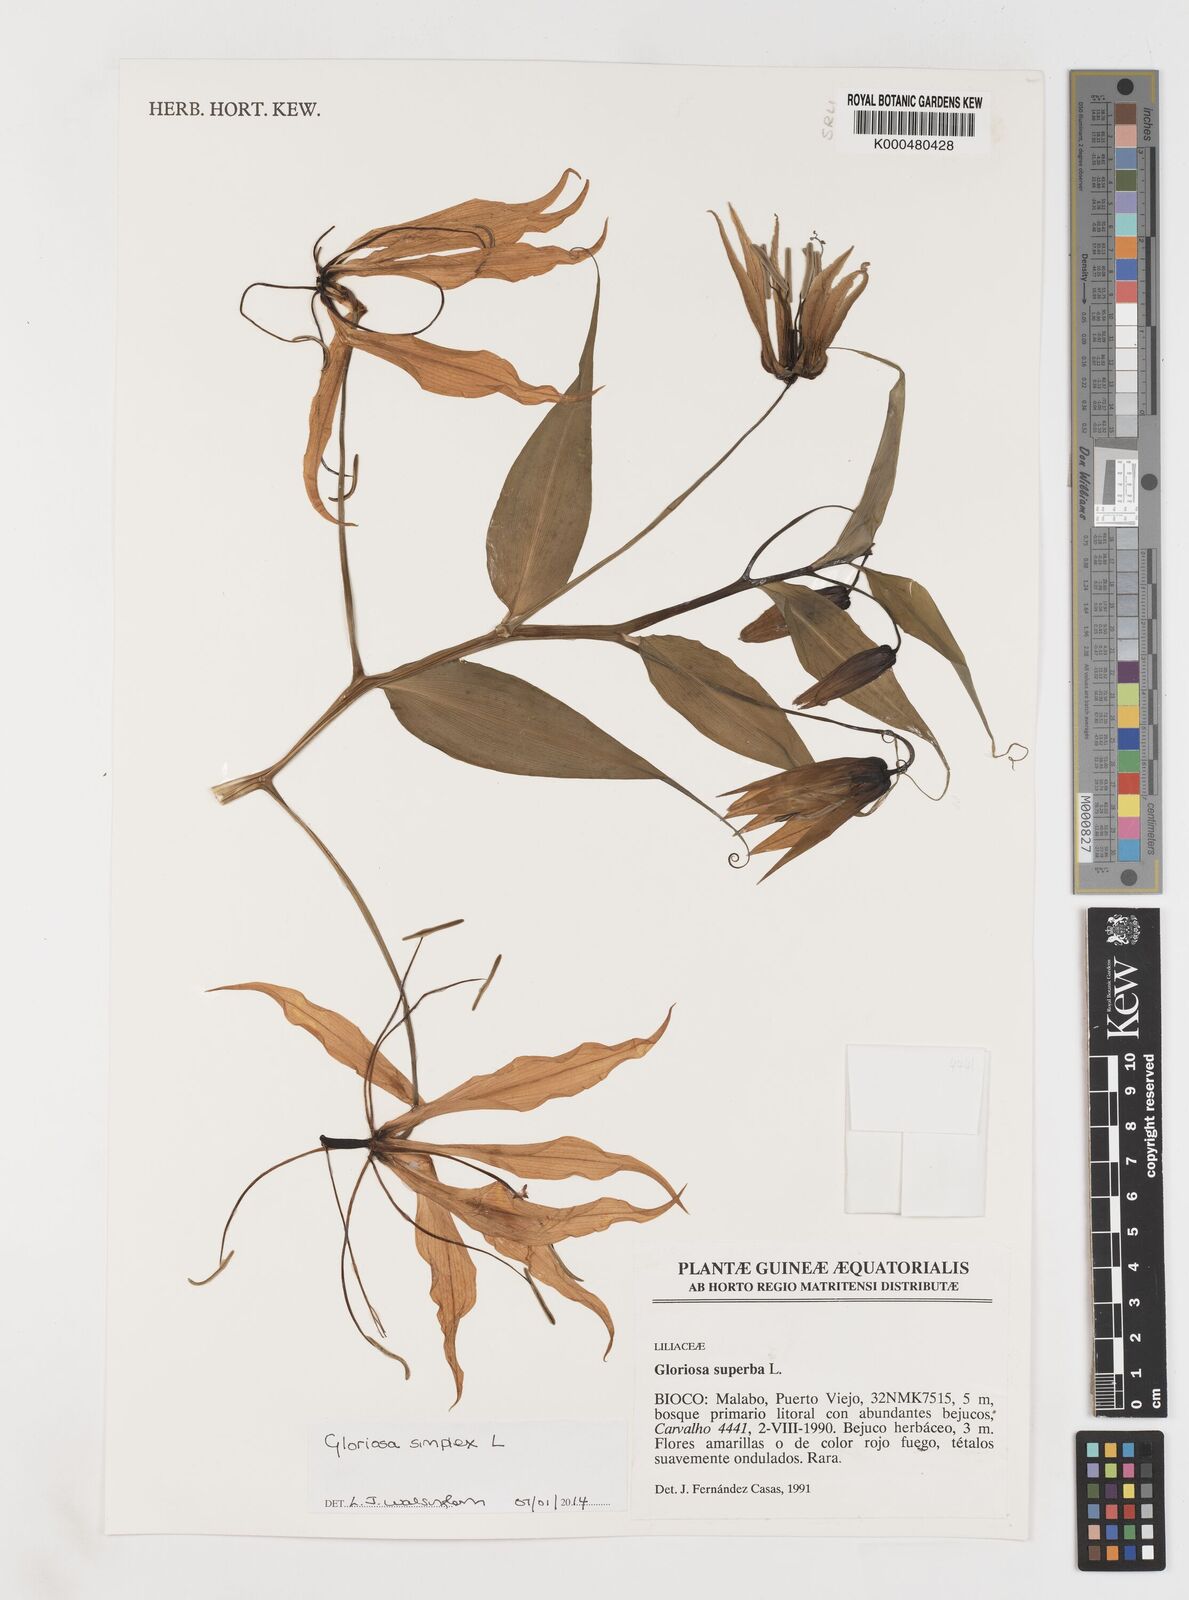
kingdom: Plantae
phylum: Tracheophyta
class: Liliopsida
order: Liliales
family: Colchicaceae
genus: Gloriosa
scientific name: Gloriosa simplex
